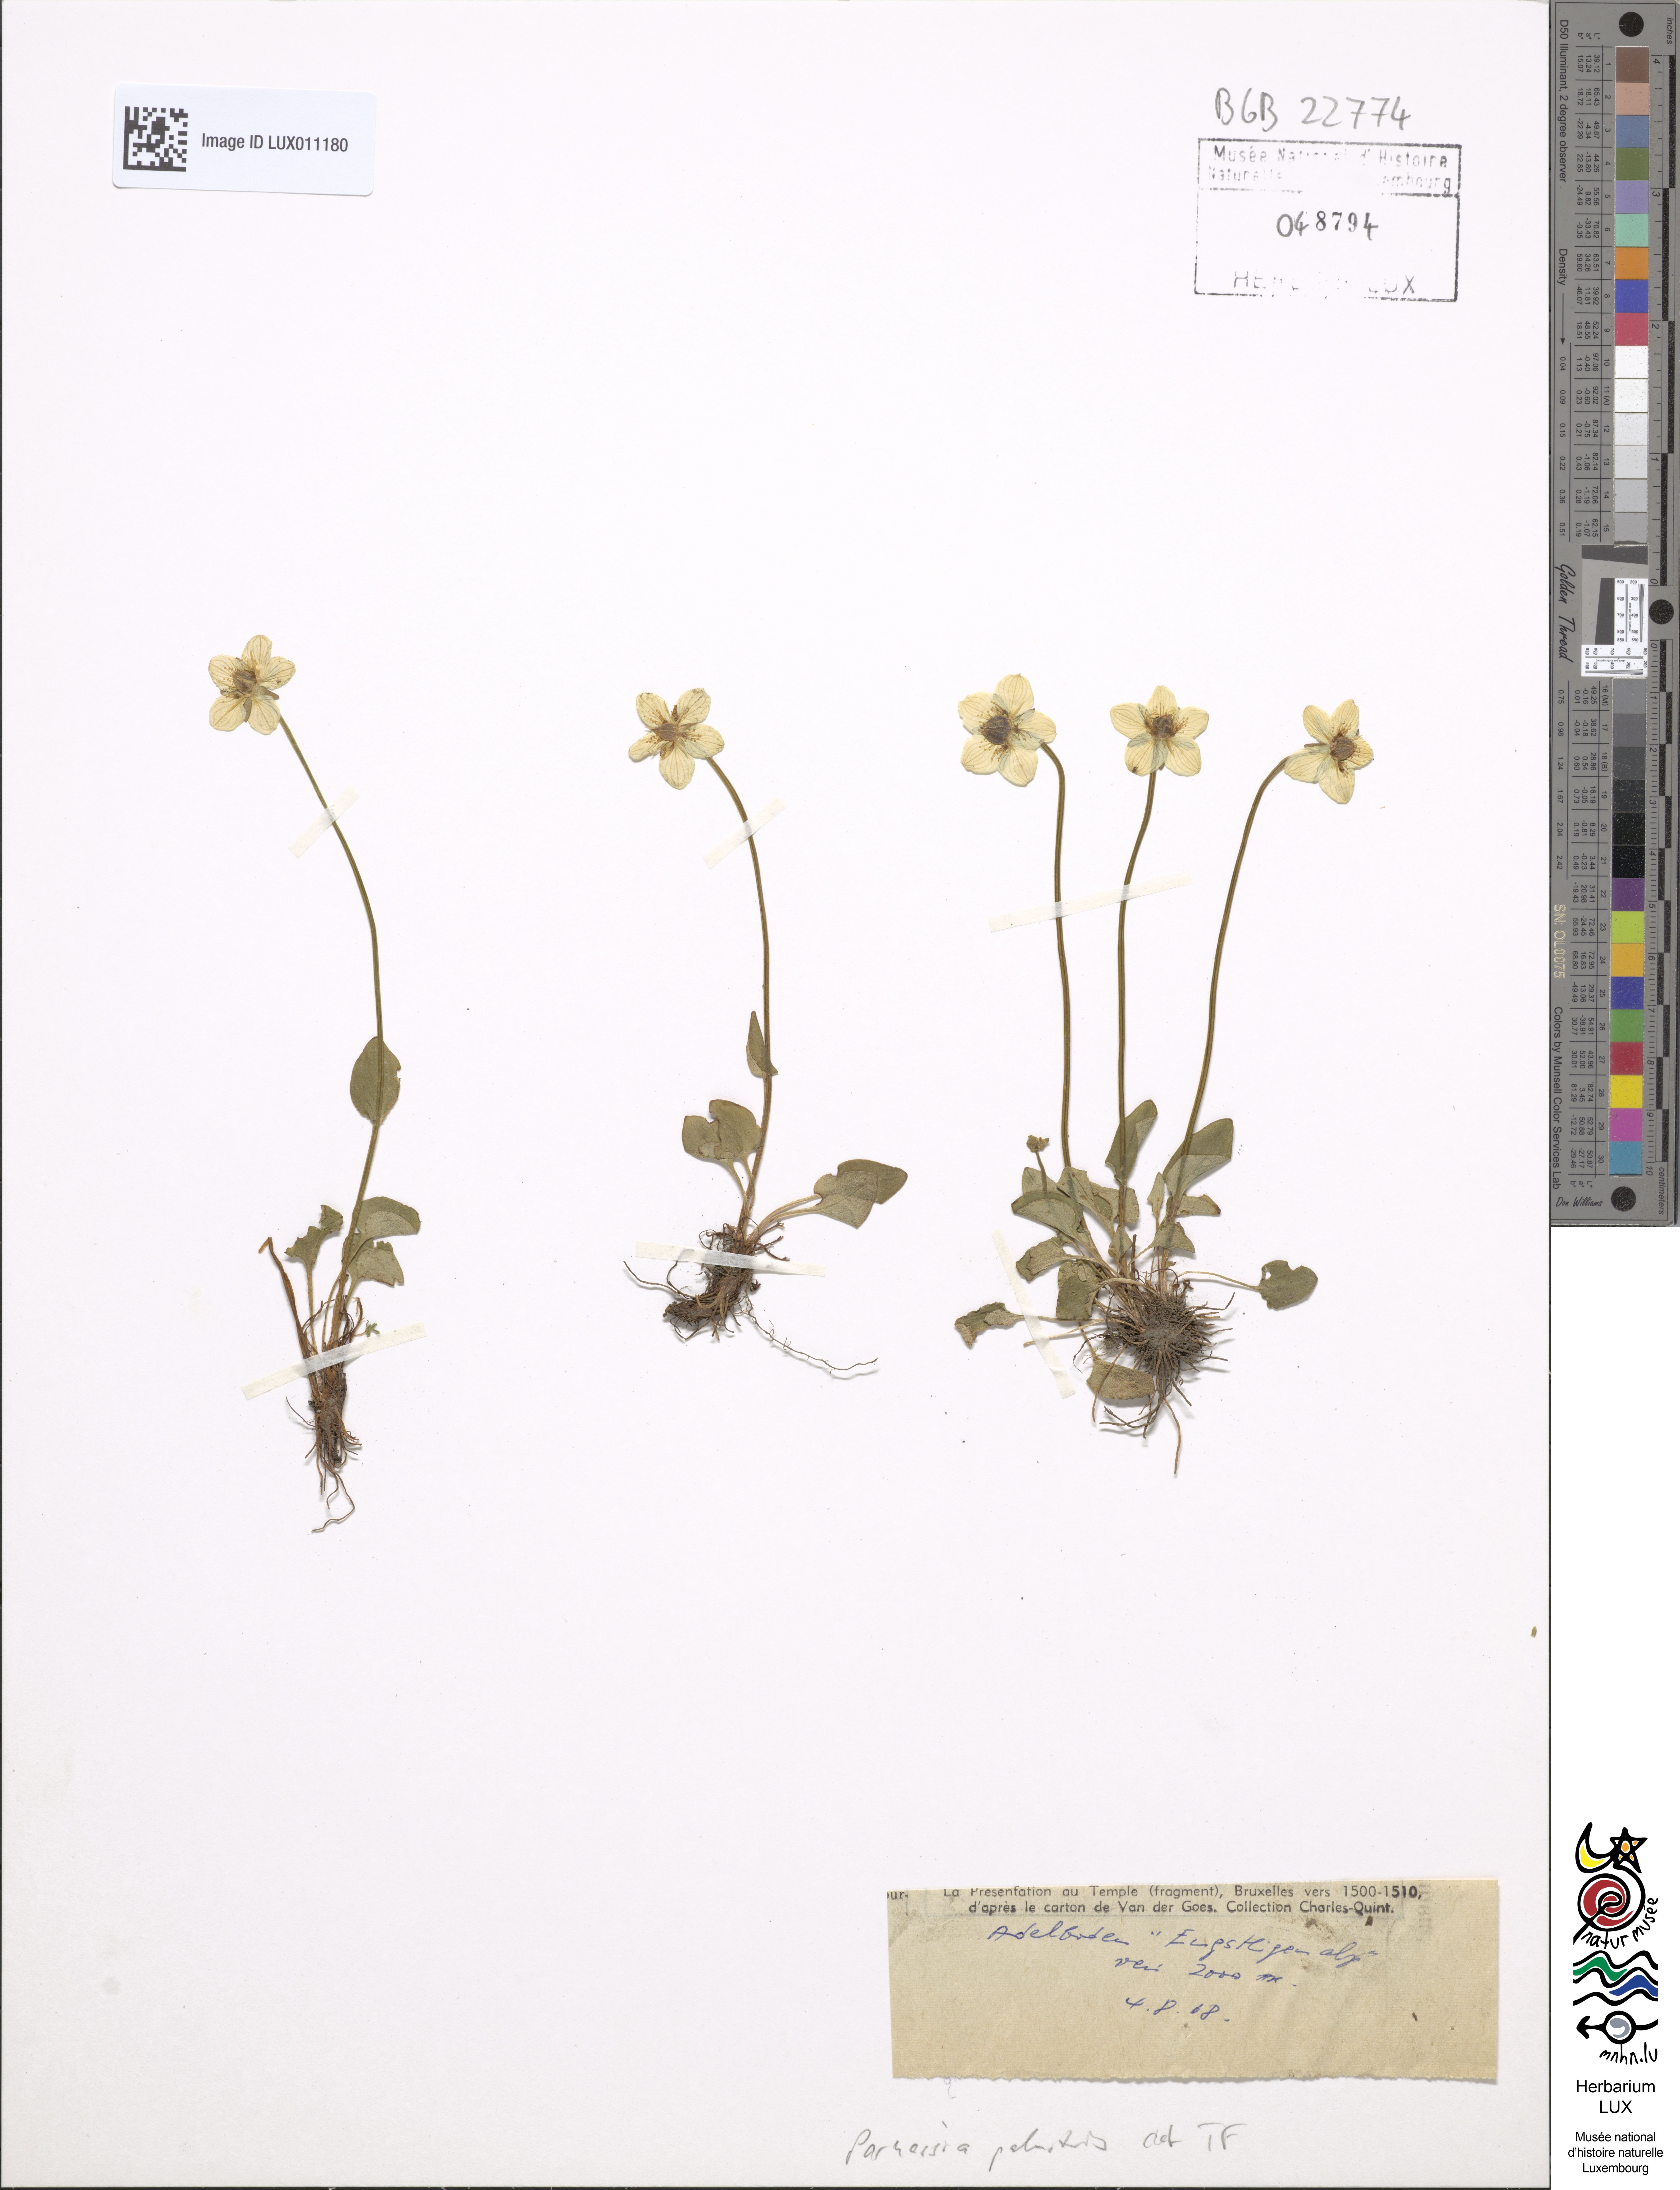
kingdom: Plantae
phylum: Tracheophyta
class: Magnoliopsida
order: Celastrales
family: Parnassiaceae
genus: Parnassia
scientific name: Parnassia palustris
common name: Grass-of-parnassus
